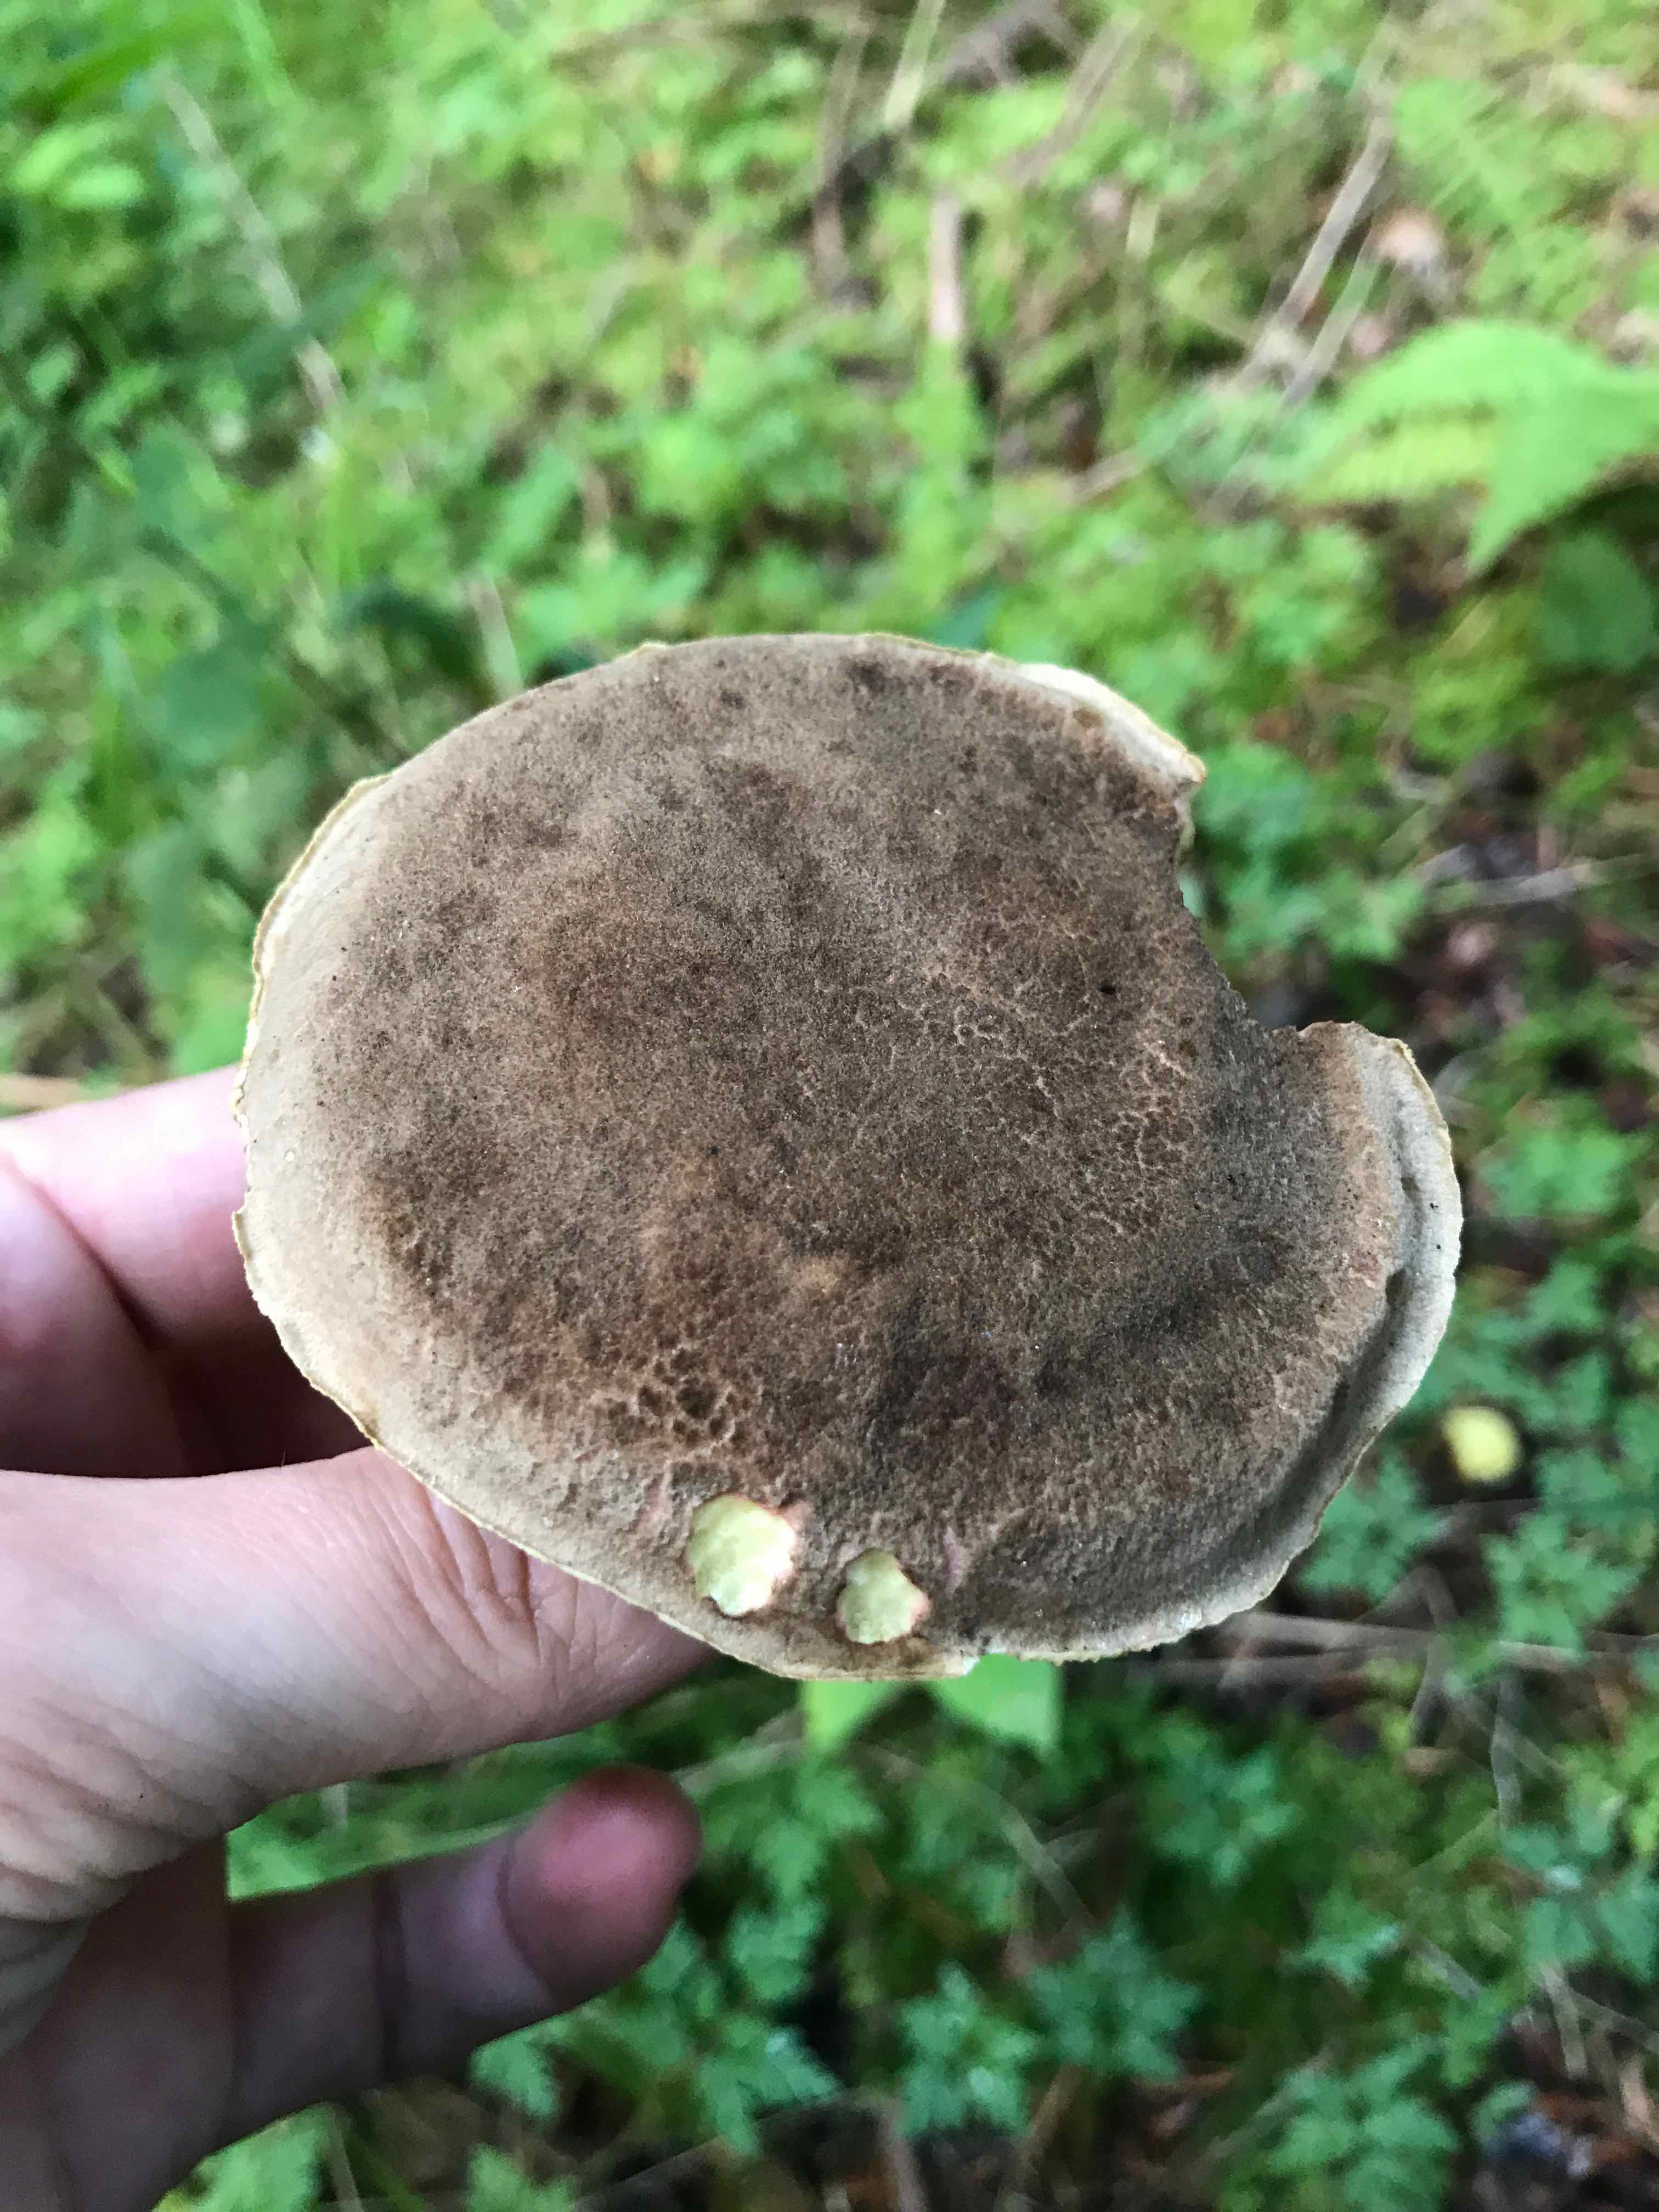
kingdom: Fungi
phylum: Basidiomycota
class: Agaricomycetes
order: Boletales
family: Boletaceae
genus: Xerocomellus
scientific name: Xerocomellus chrysenteron
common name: rødsprukken rørhat
